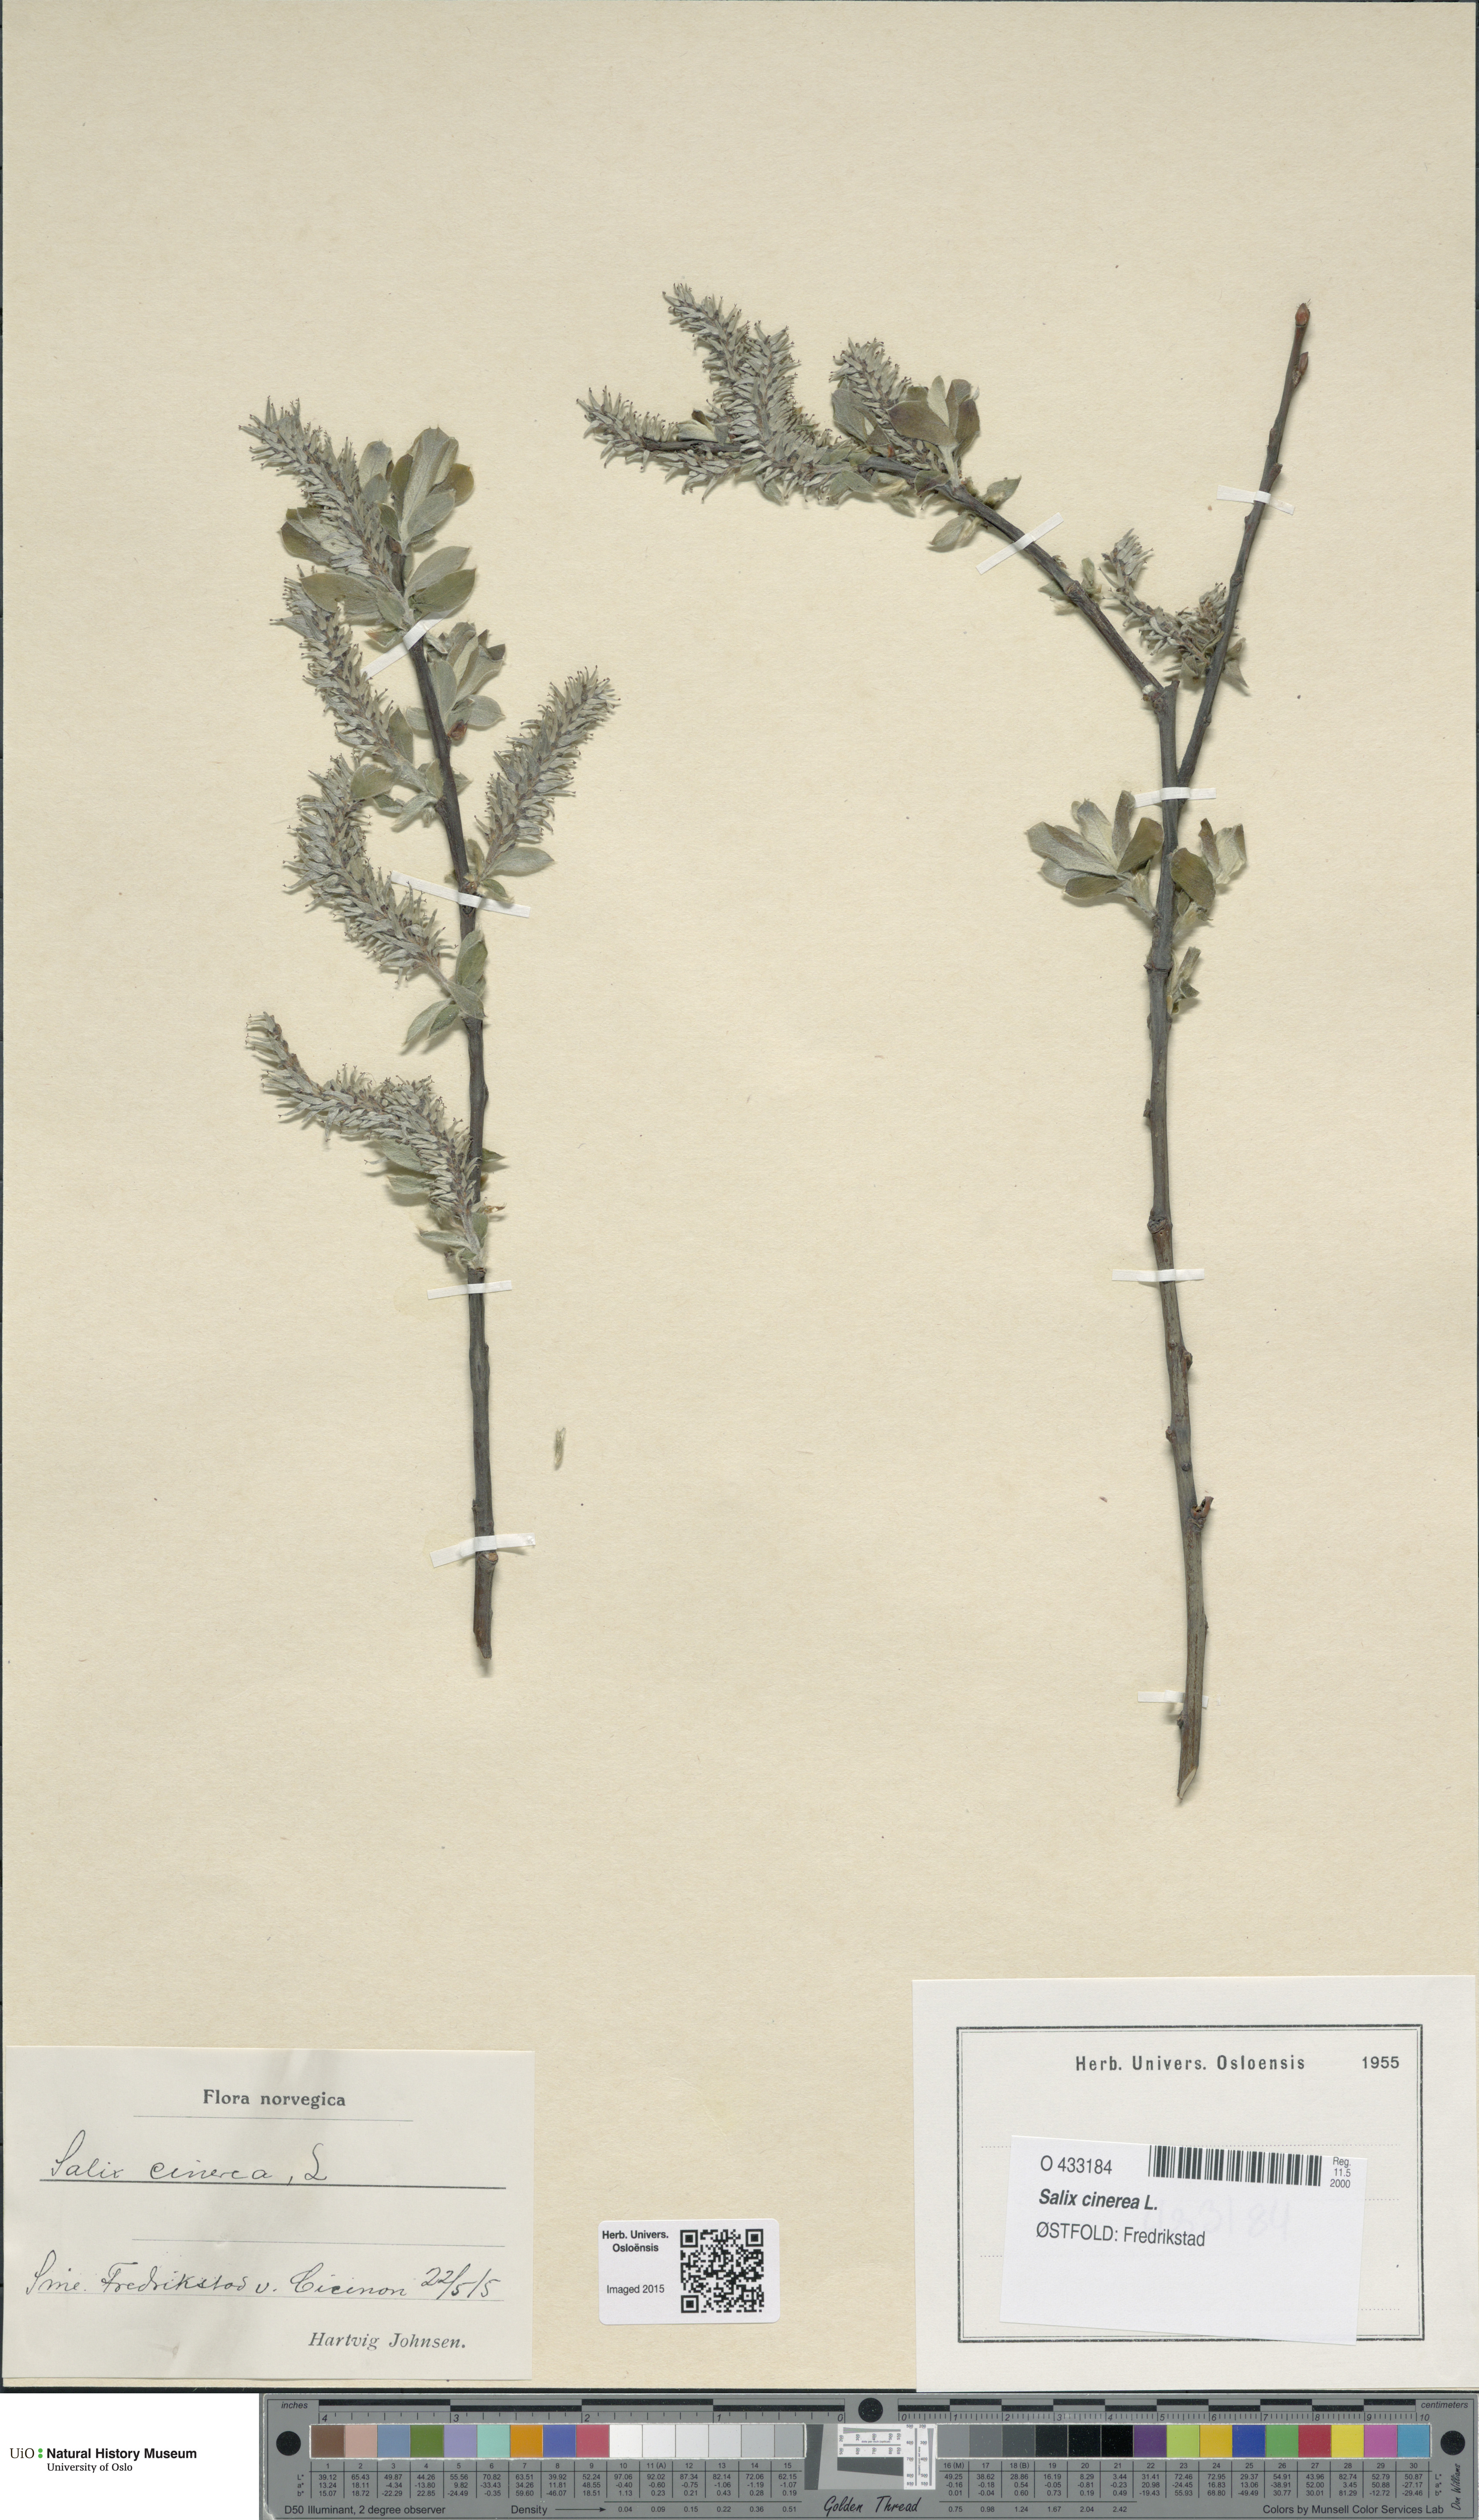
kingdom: Plantae
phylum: Tracheophyta
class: Magnoliopsida
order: Malpighiales
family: Salicaceae
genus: Salix
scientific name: Salix cinerea
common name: Common sallow
